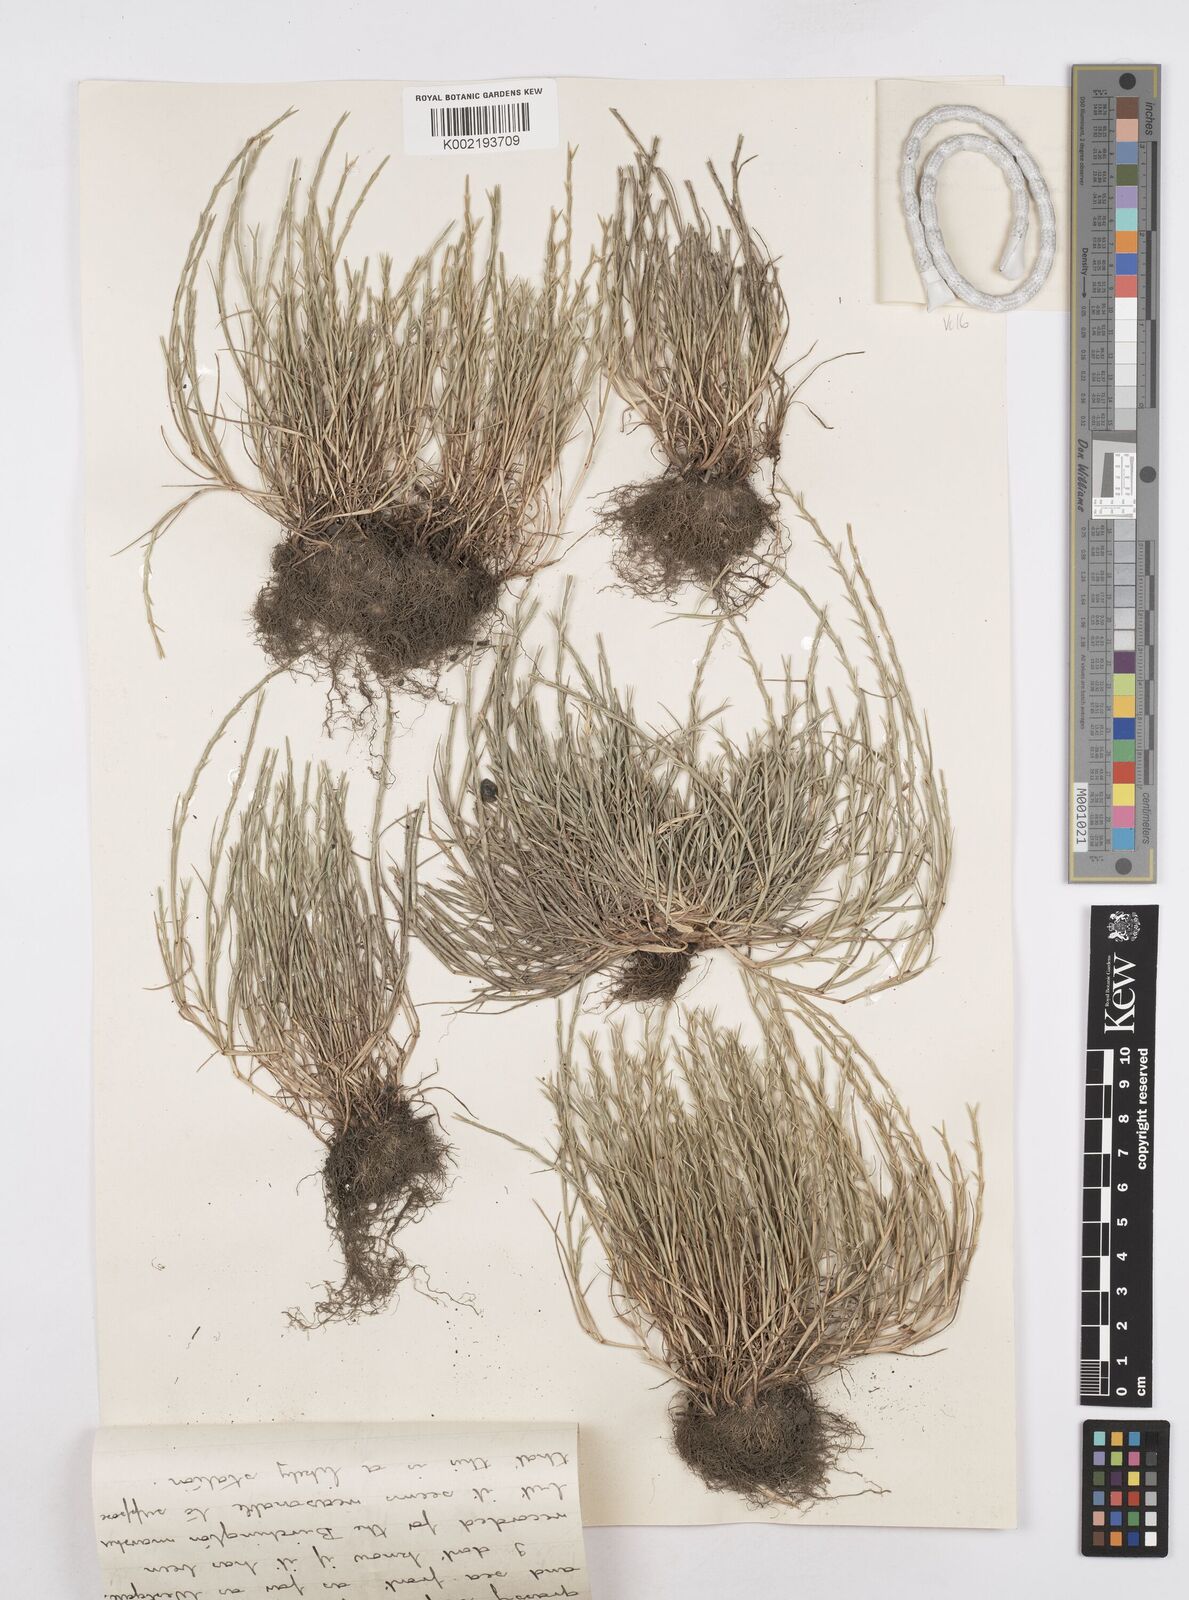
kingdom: Plantae
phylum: Tracheophyta
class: Liliopsida
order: Poales
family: Poaceae
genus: Parapholis
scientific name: Parapholis strigosa
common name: Hard-grass
